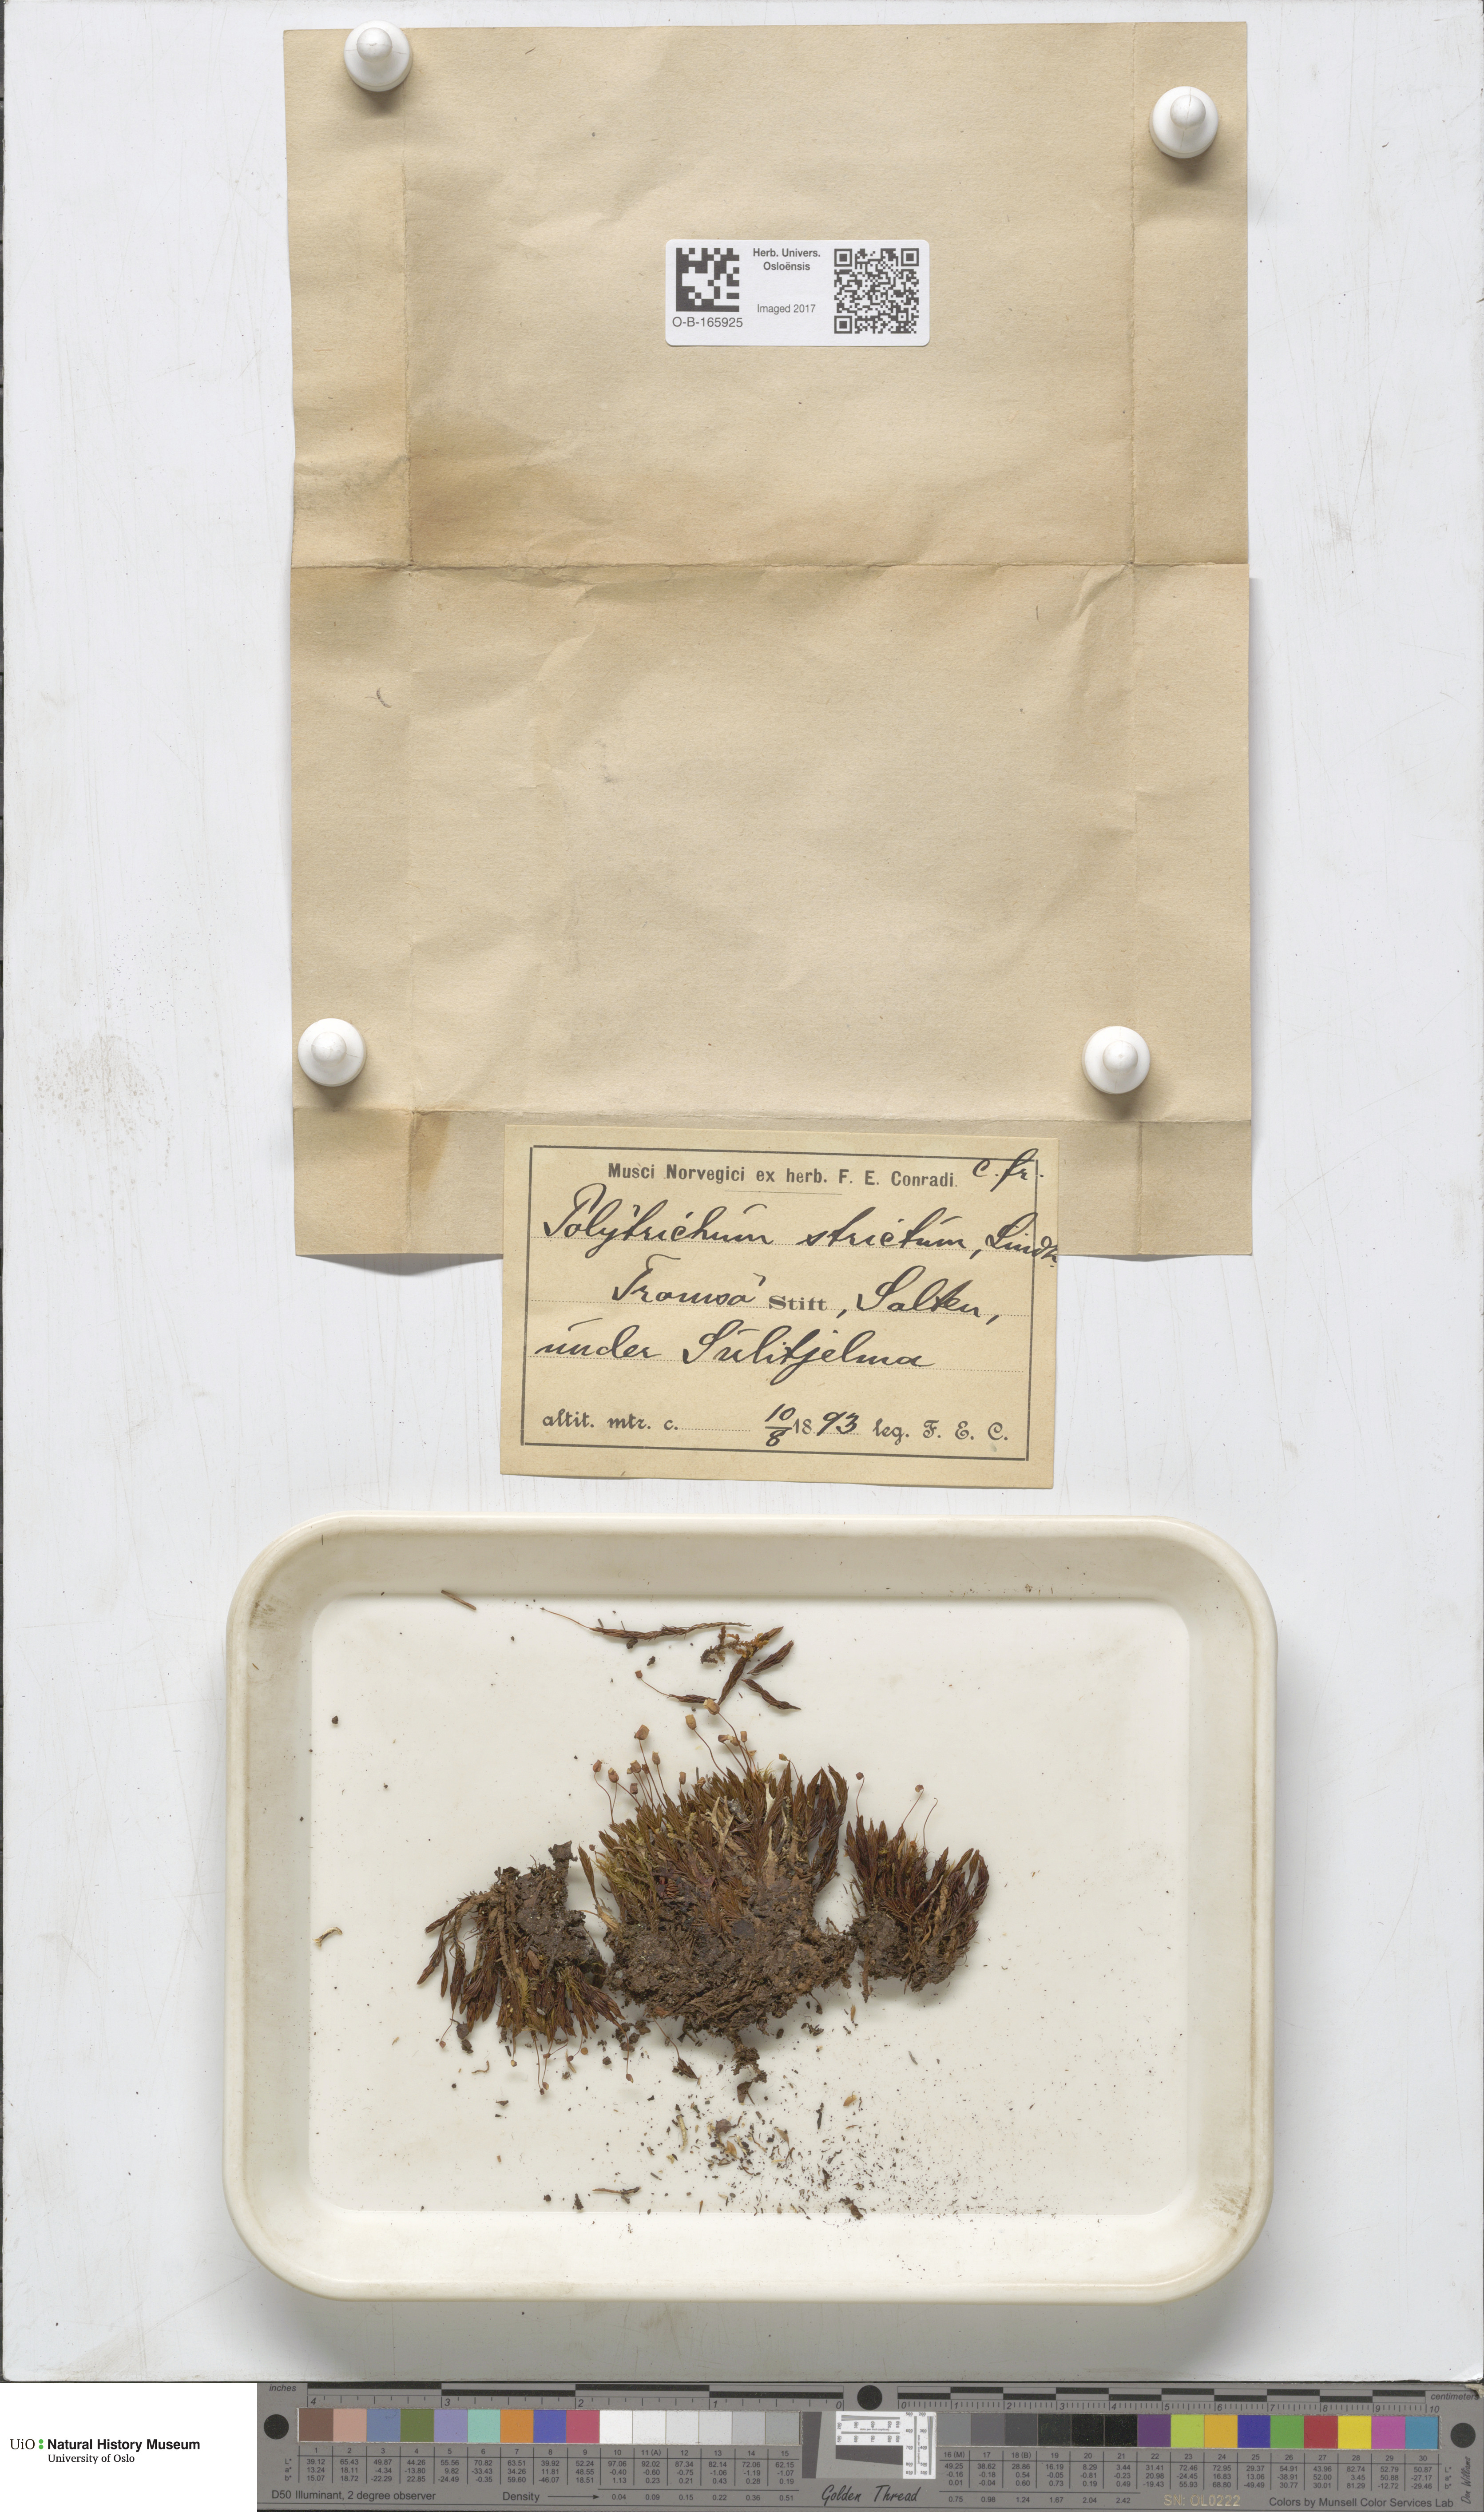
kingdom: Plantae
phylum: Bryophyta
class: Polytrichopsida
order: Polytrichales
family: Polytrichaceae
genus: Polytrichum
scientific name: Polytrichum strictum
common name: Bog haircap moss
